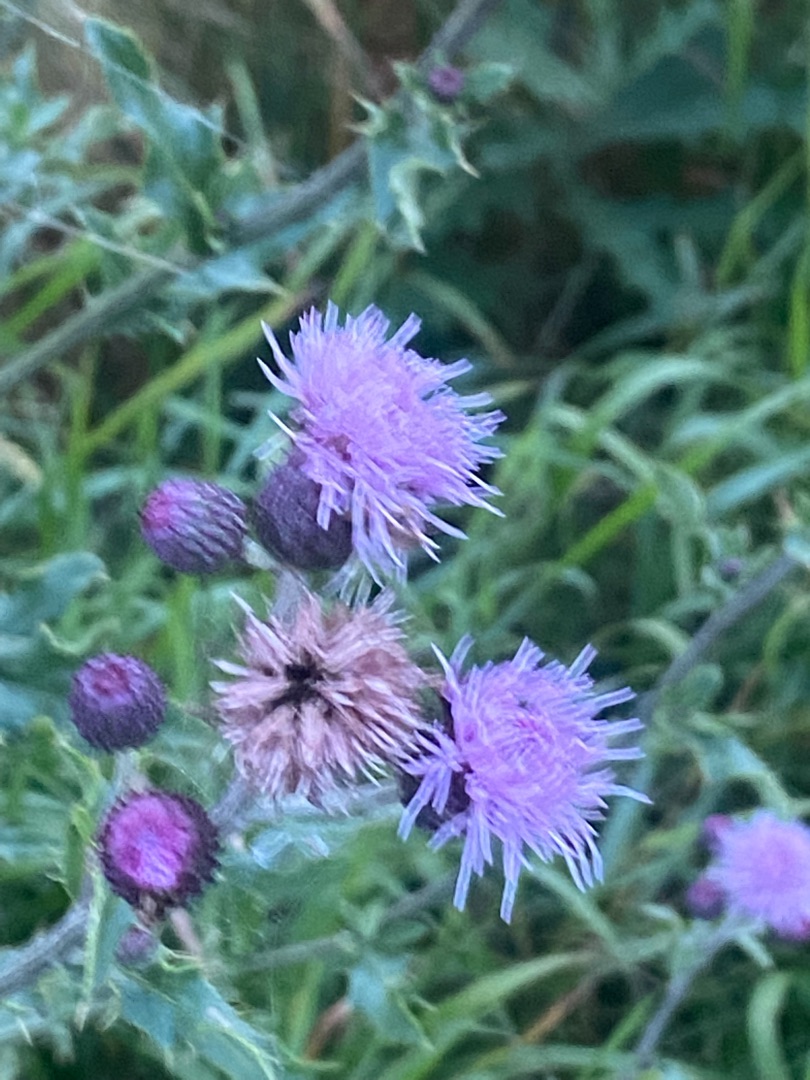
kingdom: Plantae
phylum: Tracheophyta
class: Magnoliopsida
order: Asterales
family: Asteraceae
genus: Cirsium
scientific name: Cirsium arvense
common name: Ager-tidsel
